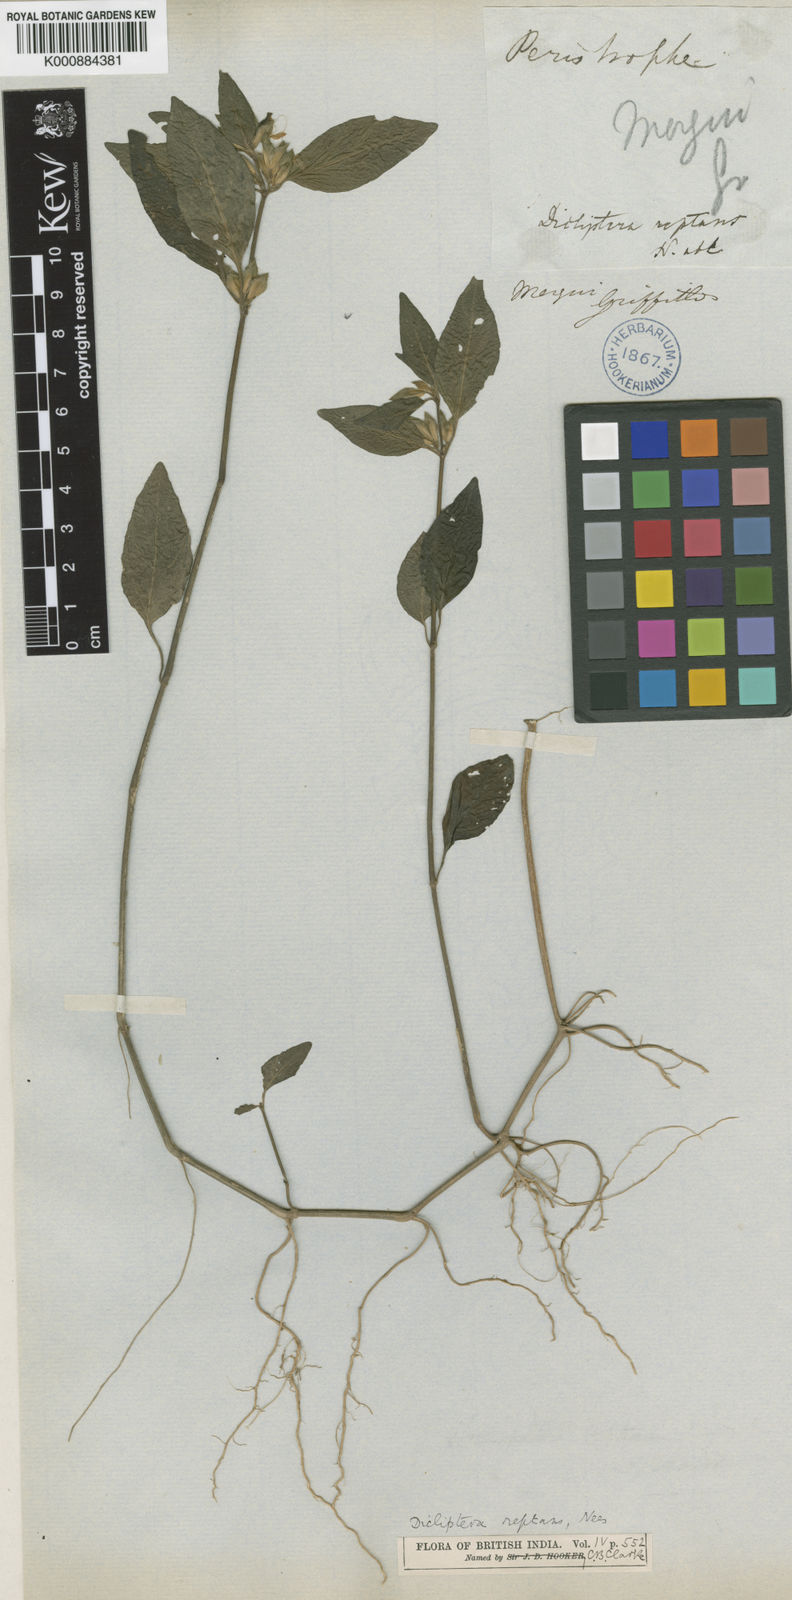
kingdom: Plantae
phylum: Tracheophyta
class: Magnoliopsida
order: Lamiales
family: Acanthaceae
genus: Dicliptera
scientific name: Dicliptera reptans
